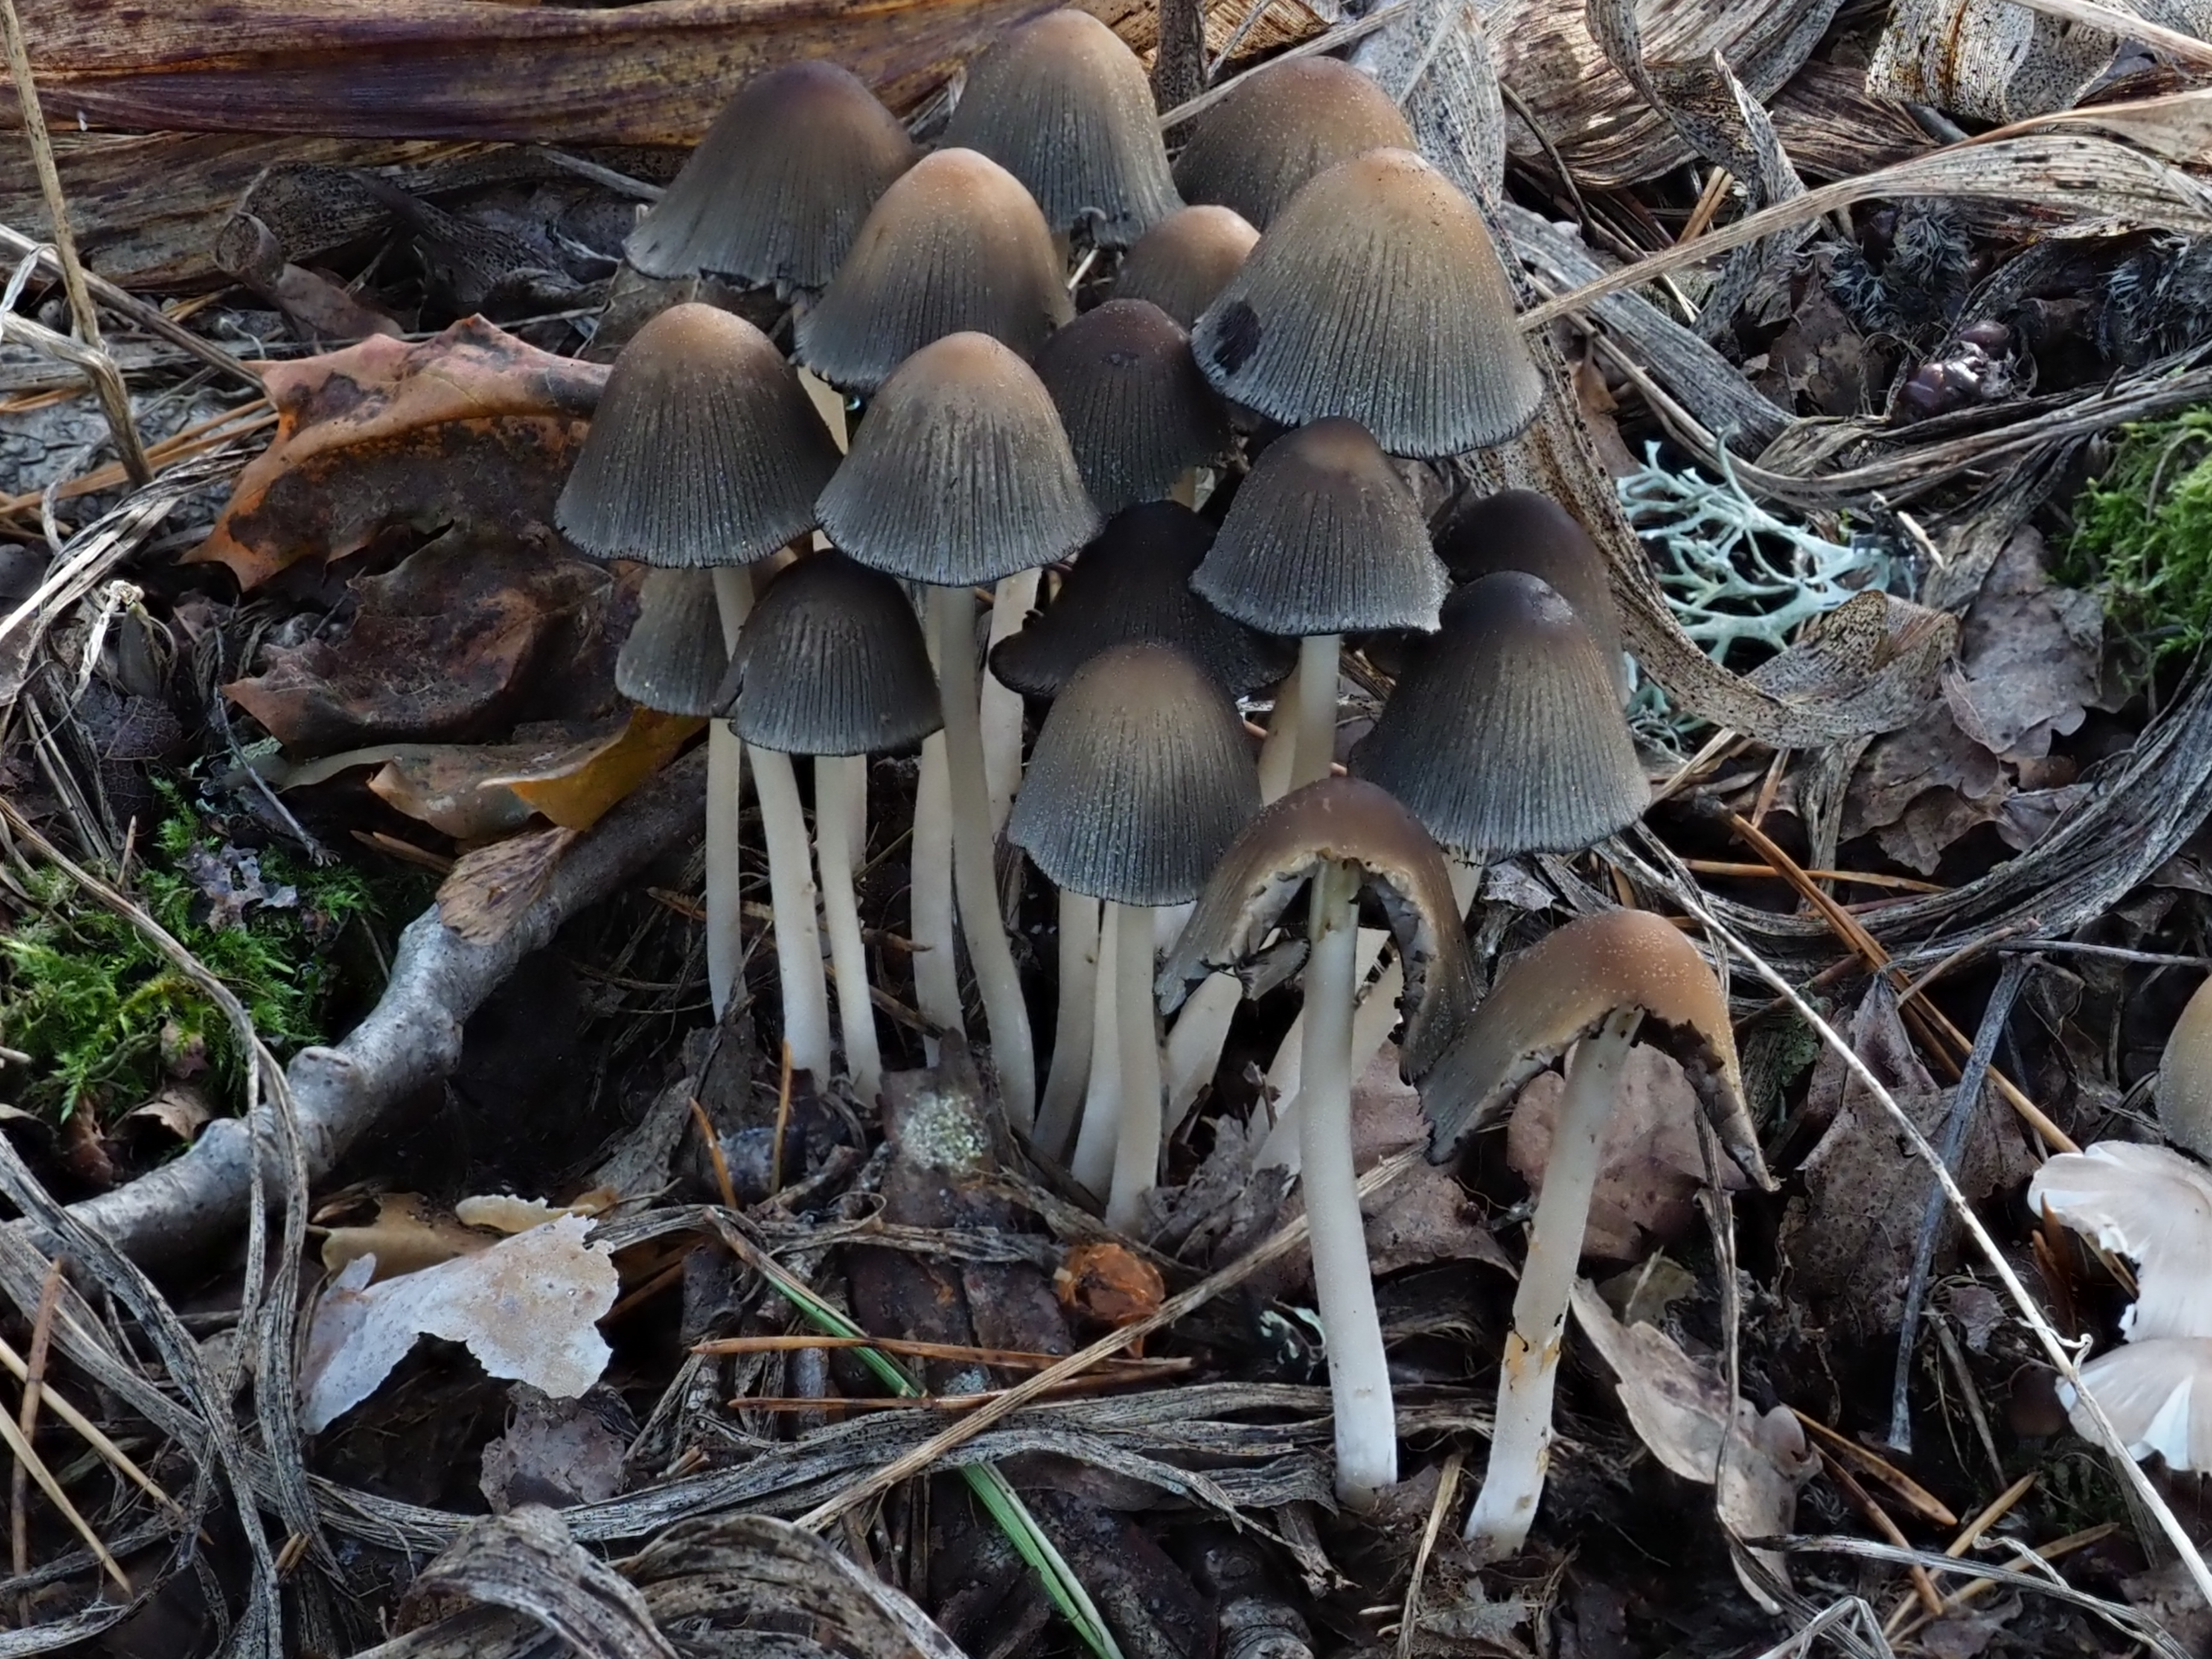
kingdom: Fungi
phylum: Basidiomycota
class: Agaricomycetes
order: Agaricales
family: Psathyrellaceae
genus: Coprinellus
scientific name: Coprinellus micaceus
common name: Glistening ink-cap
